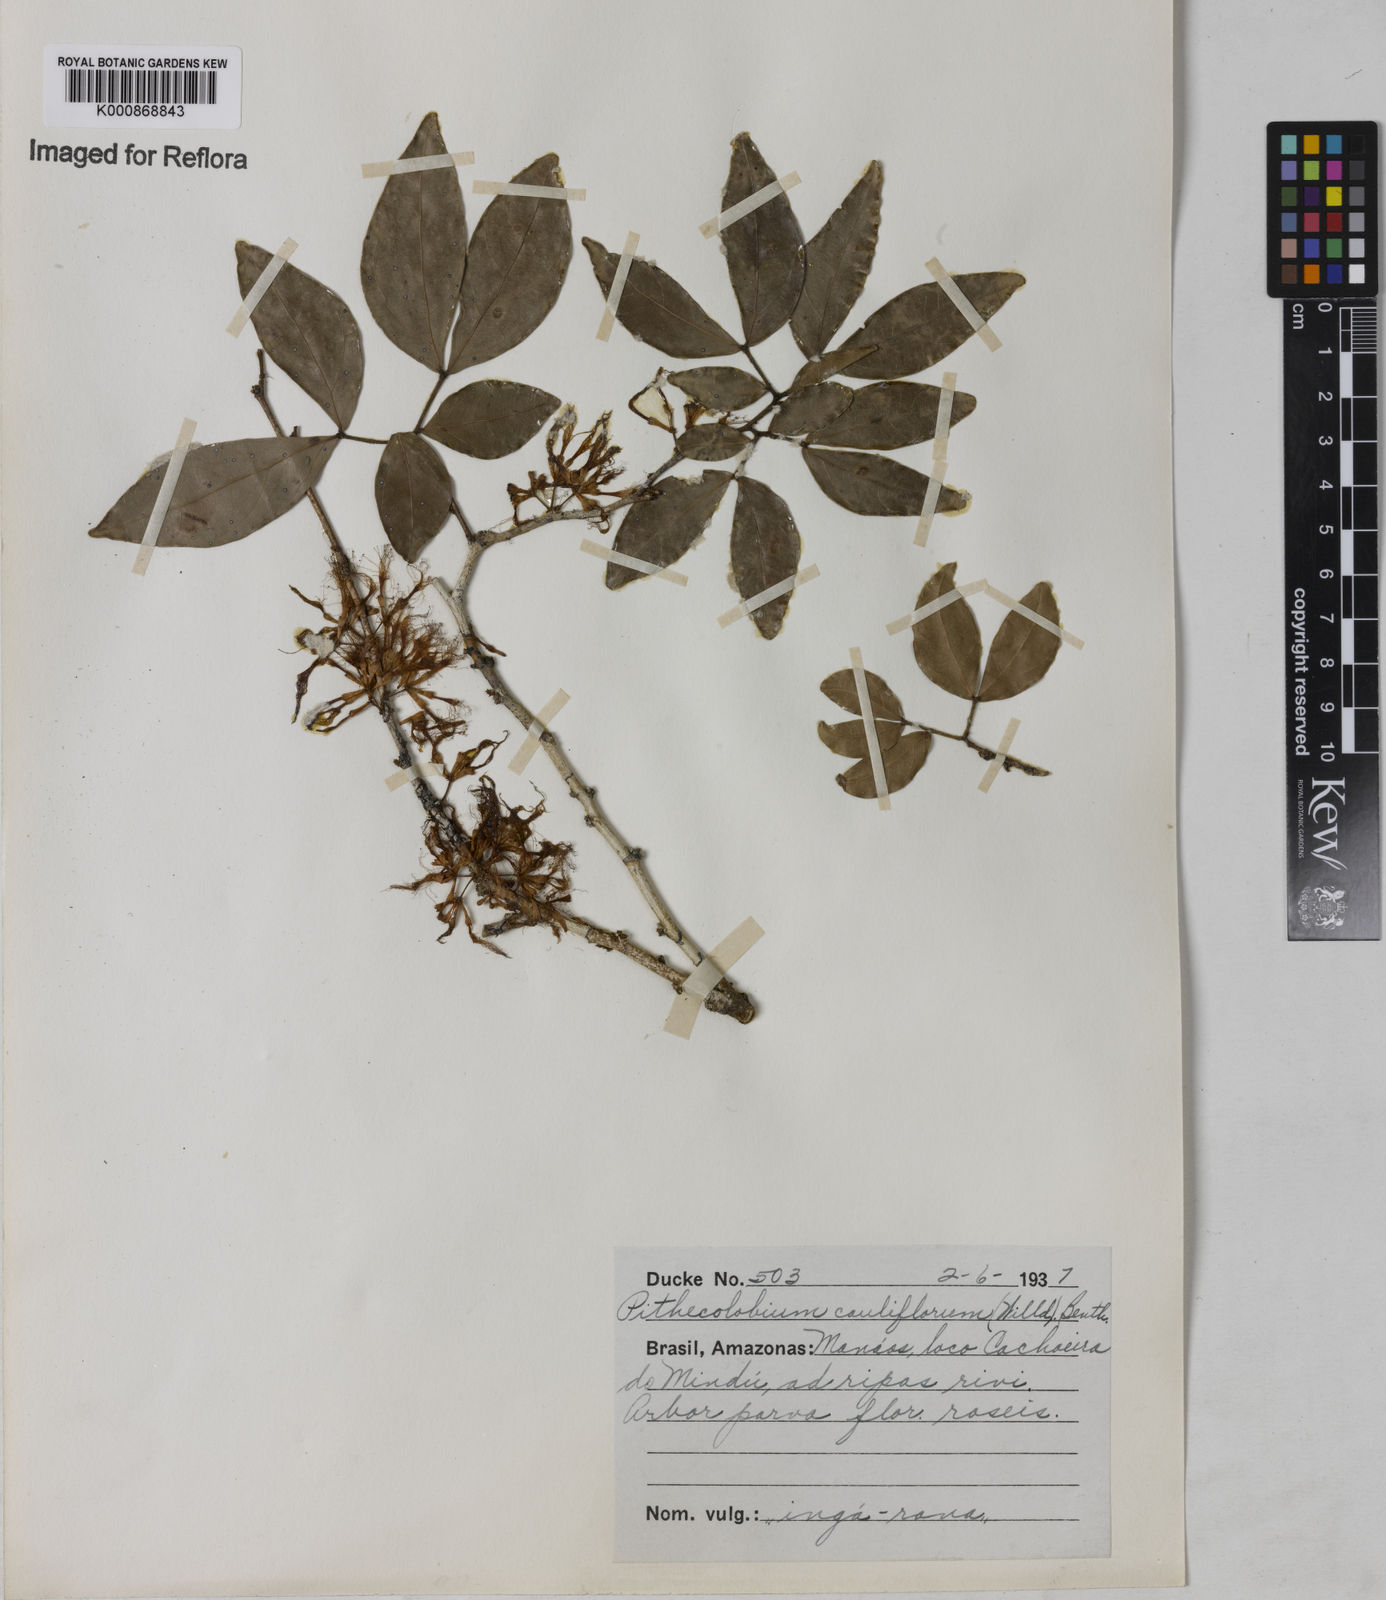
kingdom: Plantae
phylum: Tracheophyta
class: Magnoliopsida
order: Fabales
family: Fabaceae
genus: Zygia
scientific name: Zygia
